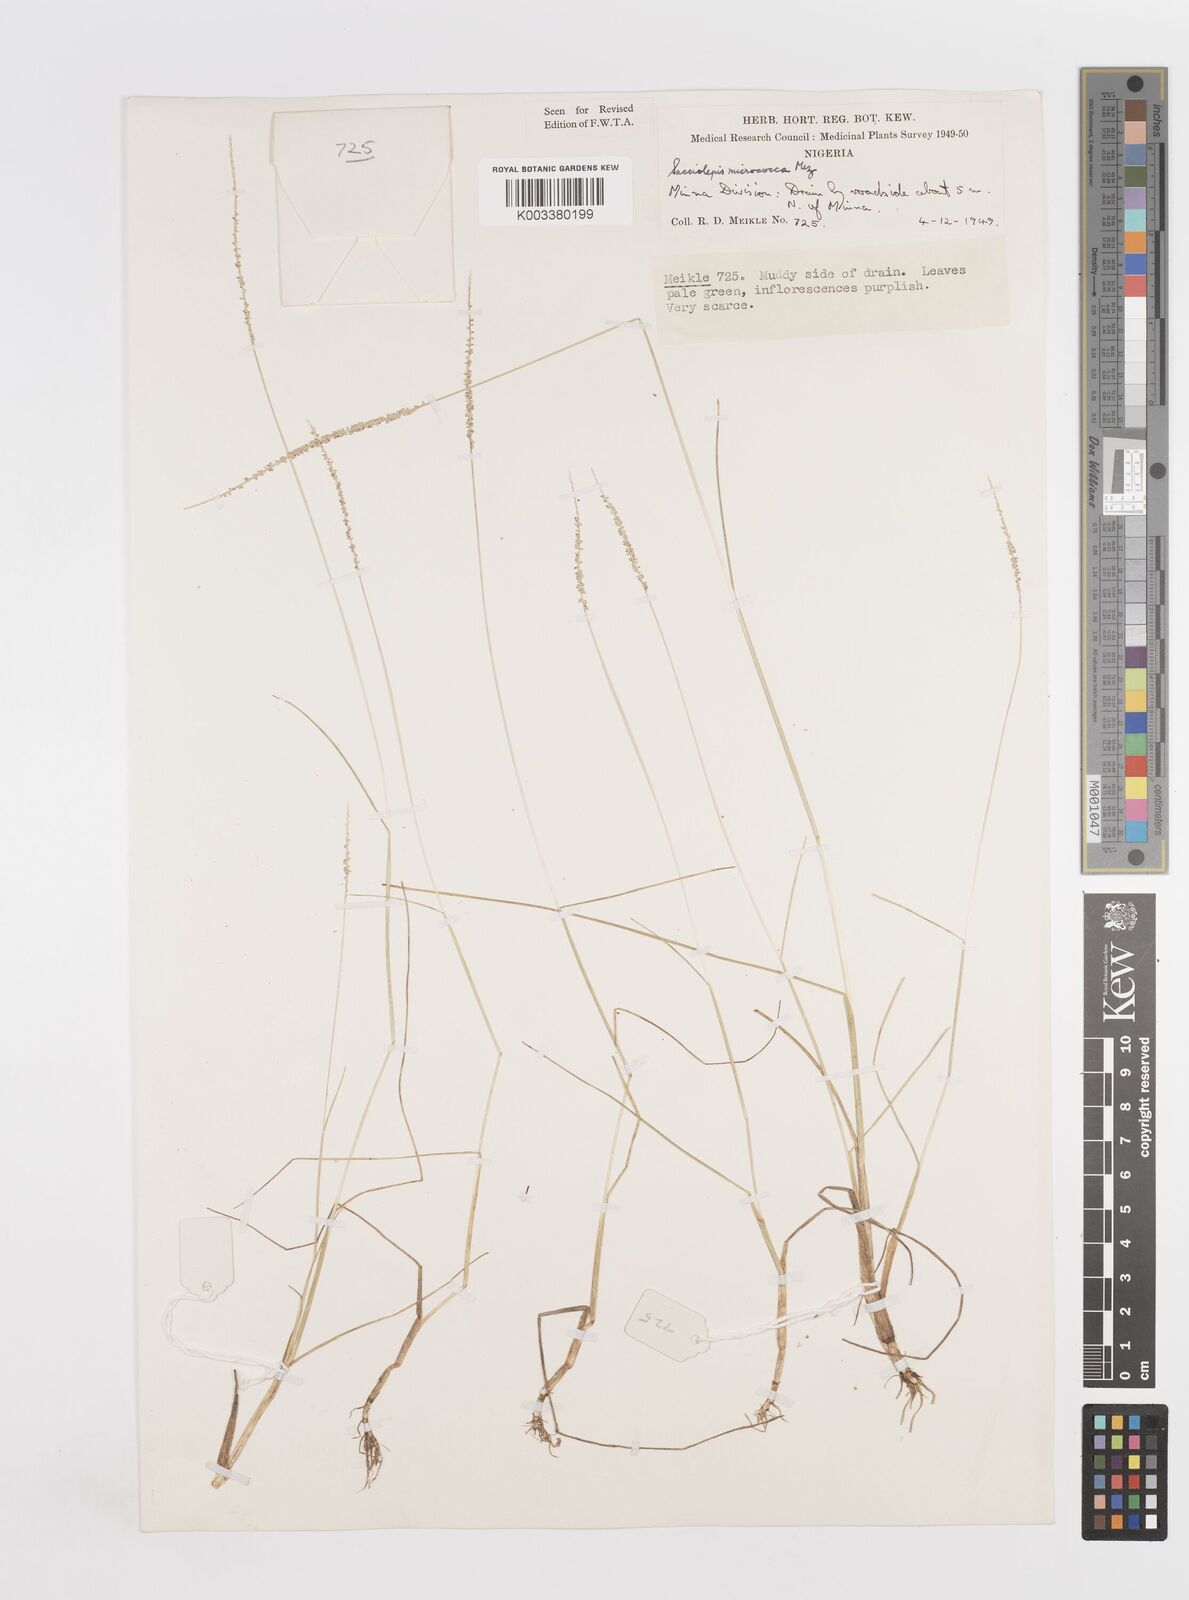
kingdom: Plantae
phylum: Tracheophyta
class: Liliopsida
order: Poales
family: Poaceae
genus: Sacciolepis
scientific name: Sacciolepis micrococca
